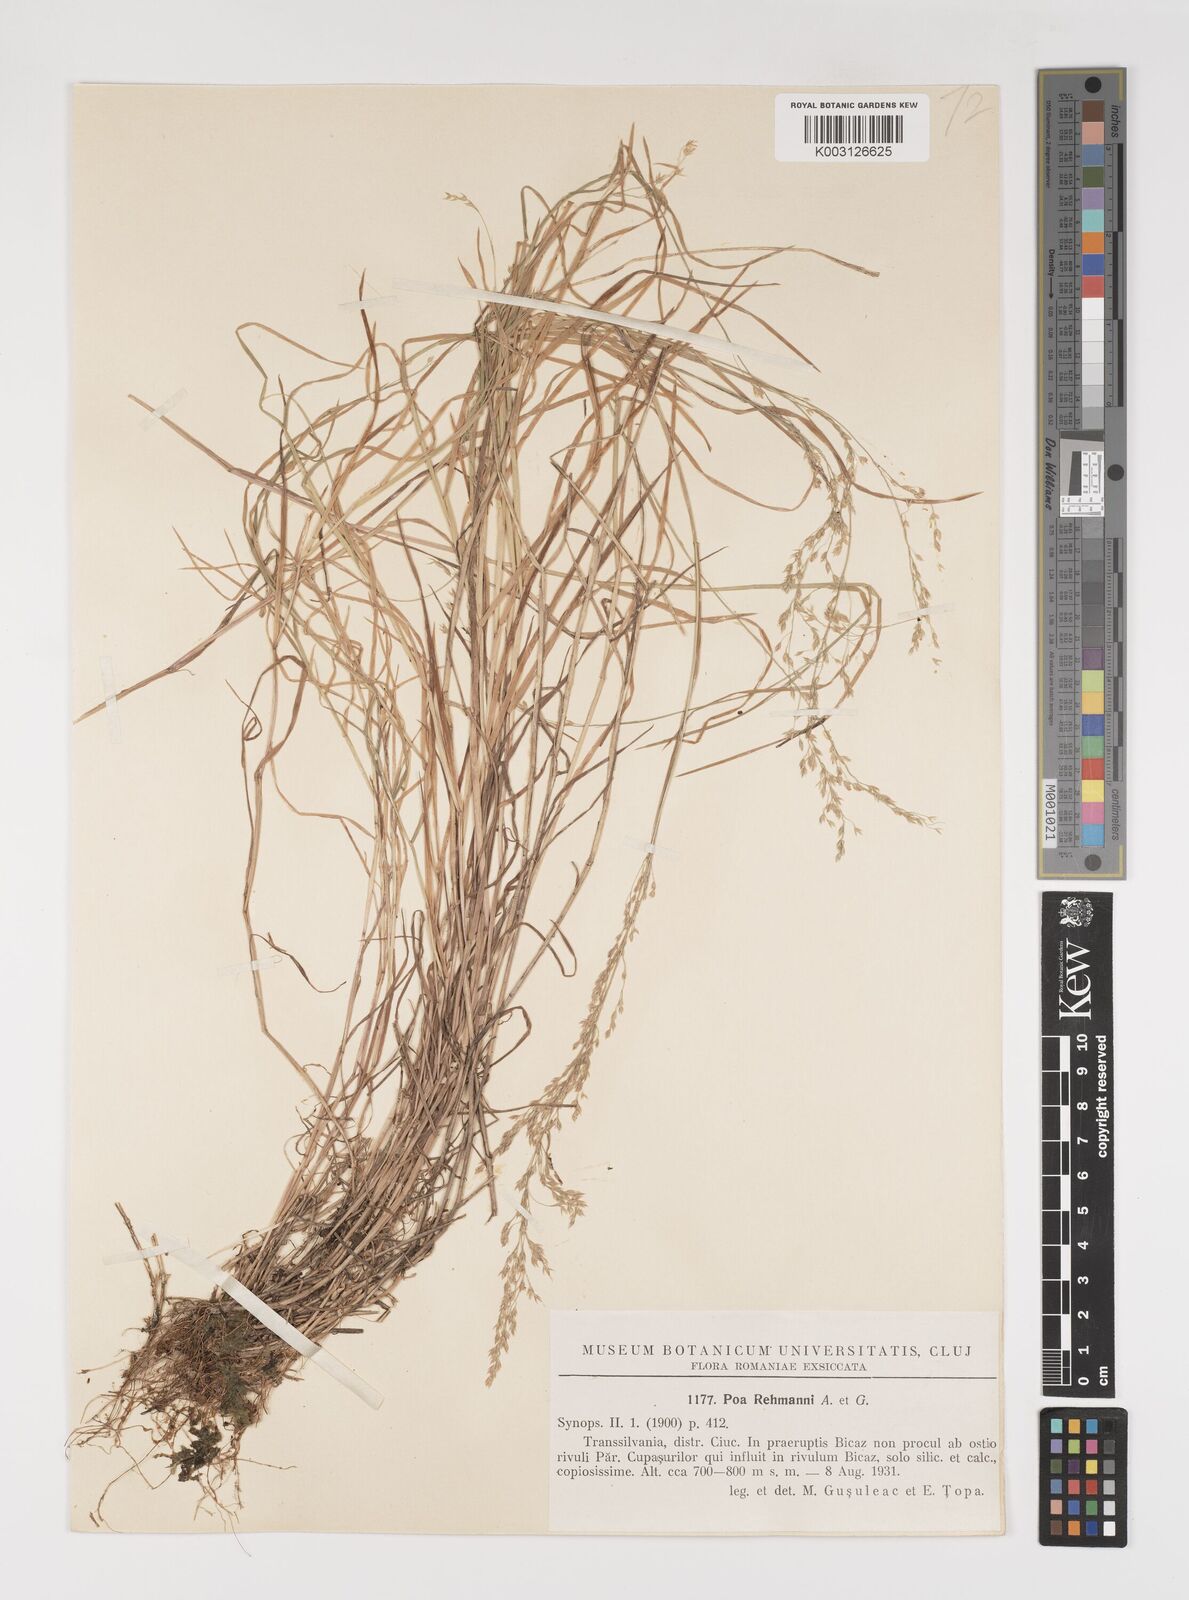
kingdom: Plantae
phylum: Tracheophyta
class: Liliopsida
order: Poales
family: Poaceae
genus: Poa
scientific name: Poa rehmannii
